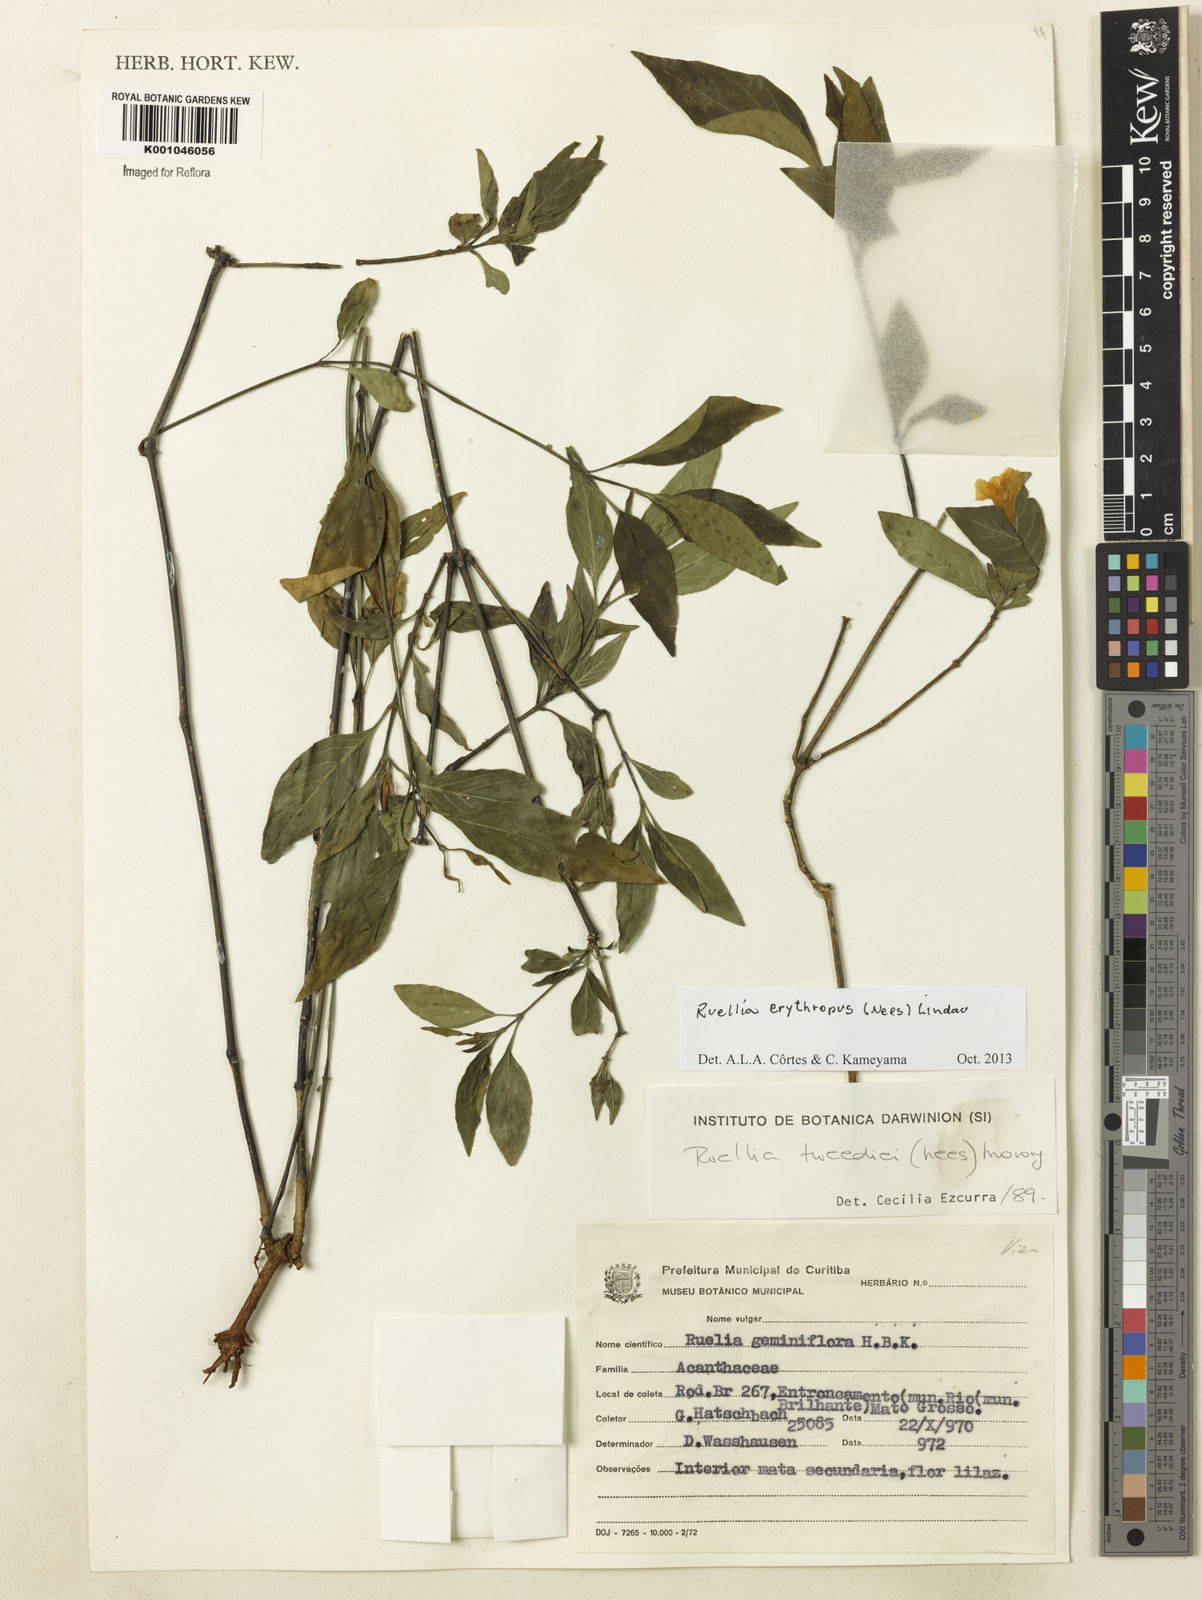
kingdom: Plantae
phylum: Tracheophyta
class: Magnoliopsida
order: Lamiales
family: Acanthaceae
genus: Ruellia
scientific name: Ruellia erythropus
